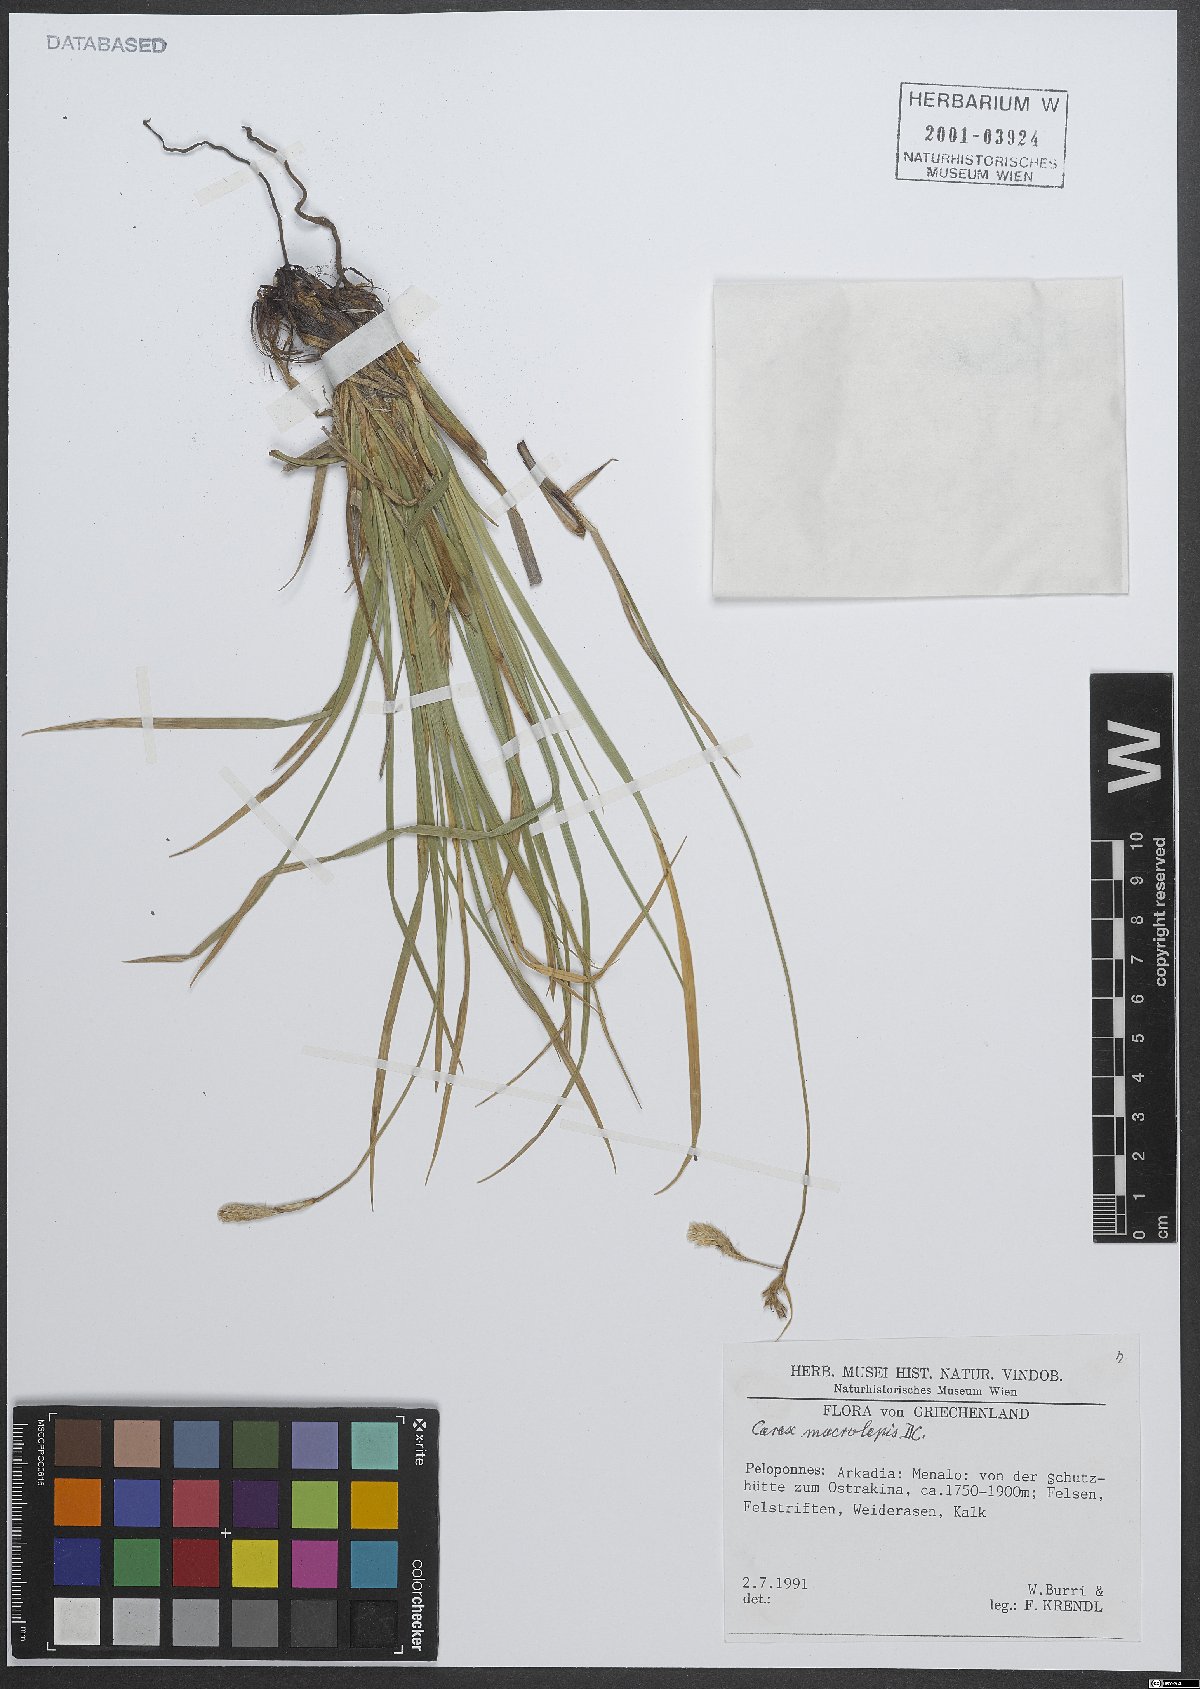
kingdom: Plantae
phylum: Tracheophyta
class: Liliopsida
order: Poales
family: Cyperaceae
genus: Carex
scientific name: Carex macrolepis
